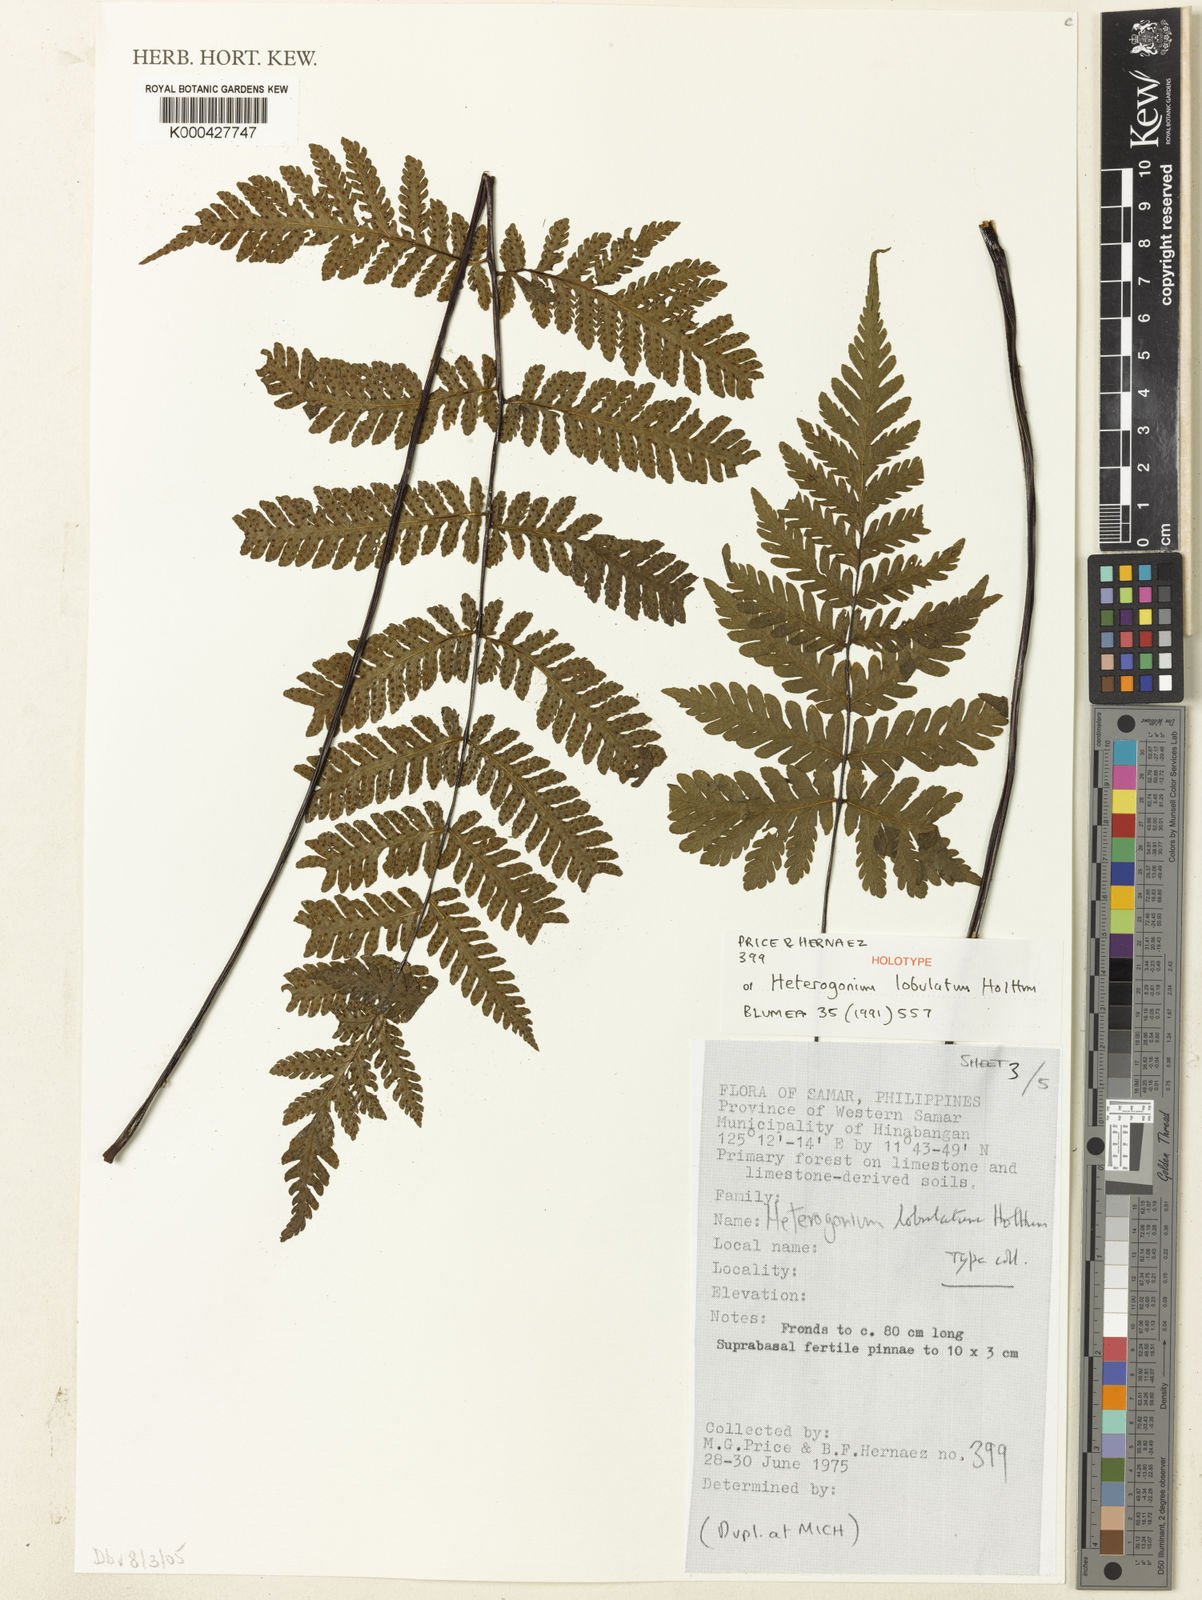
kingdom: Plantae
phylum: Tracheophyta
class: Polypodiopsida
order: Polypodiales
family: Tectariaceae
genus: Tectaria
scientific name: Tectaria samariana
